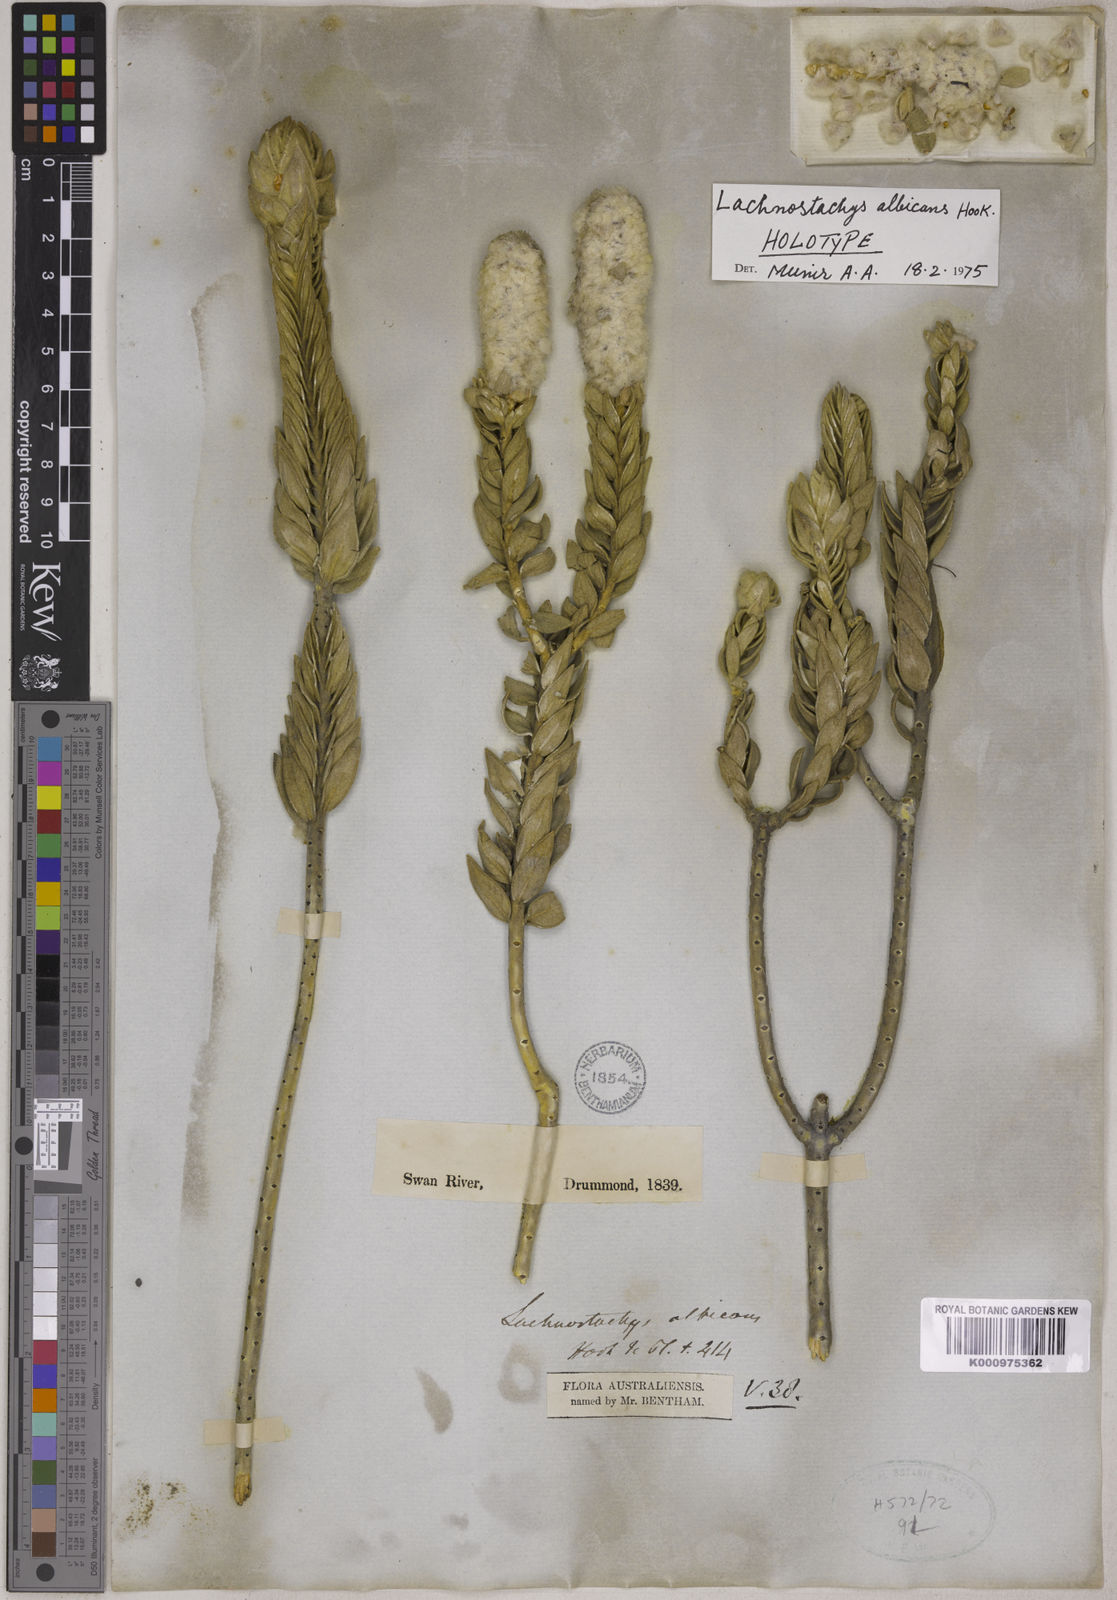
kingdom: Plantae
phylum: Tracheophyta
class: Magnoliopsida
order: Lamiales
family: Lamiaceae
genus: Apatelantha
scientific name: Apatelantha albicans
